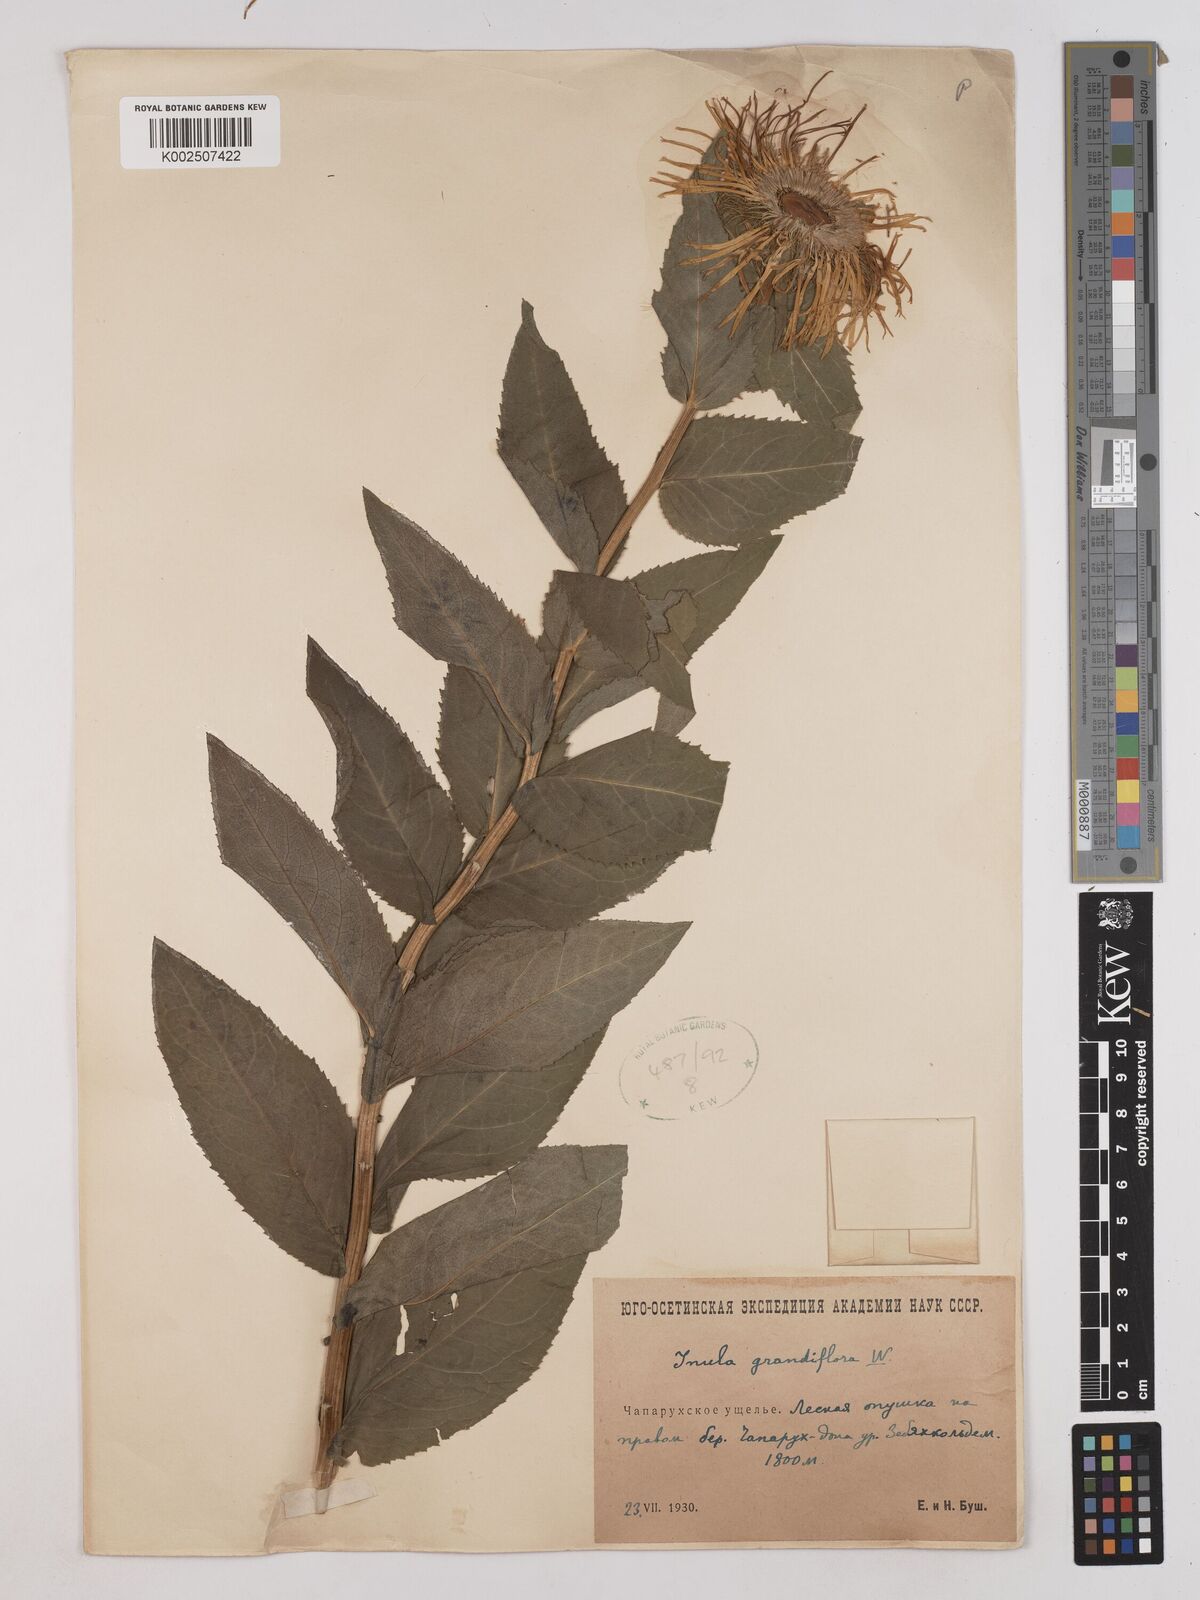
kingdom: Plantae
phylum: Tracheophyta
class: Magnoliopsida
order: Asterales
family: Asteraceae
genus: Pentanema
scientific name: Pentanema orientale
